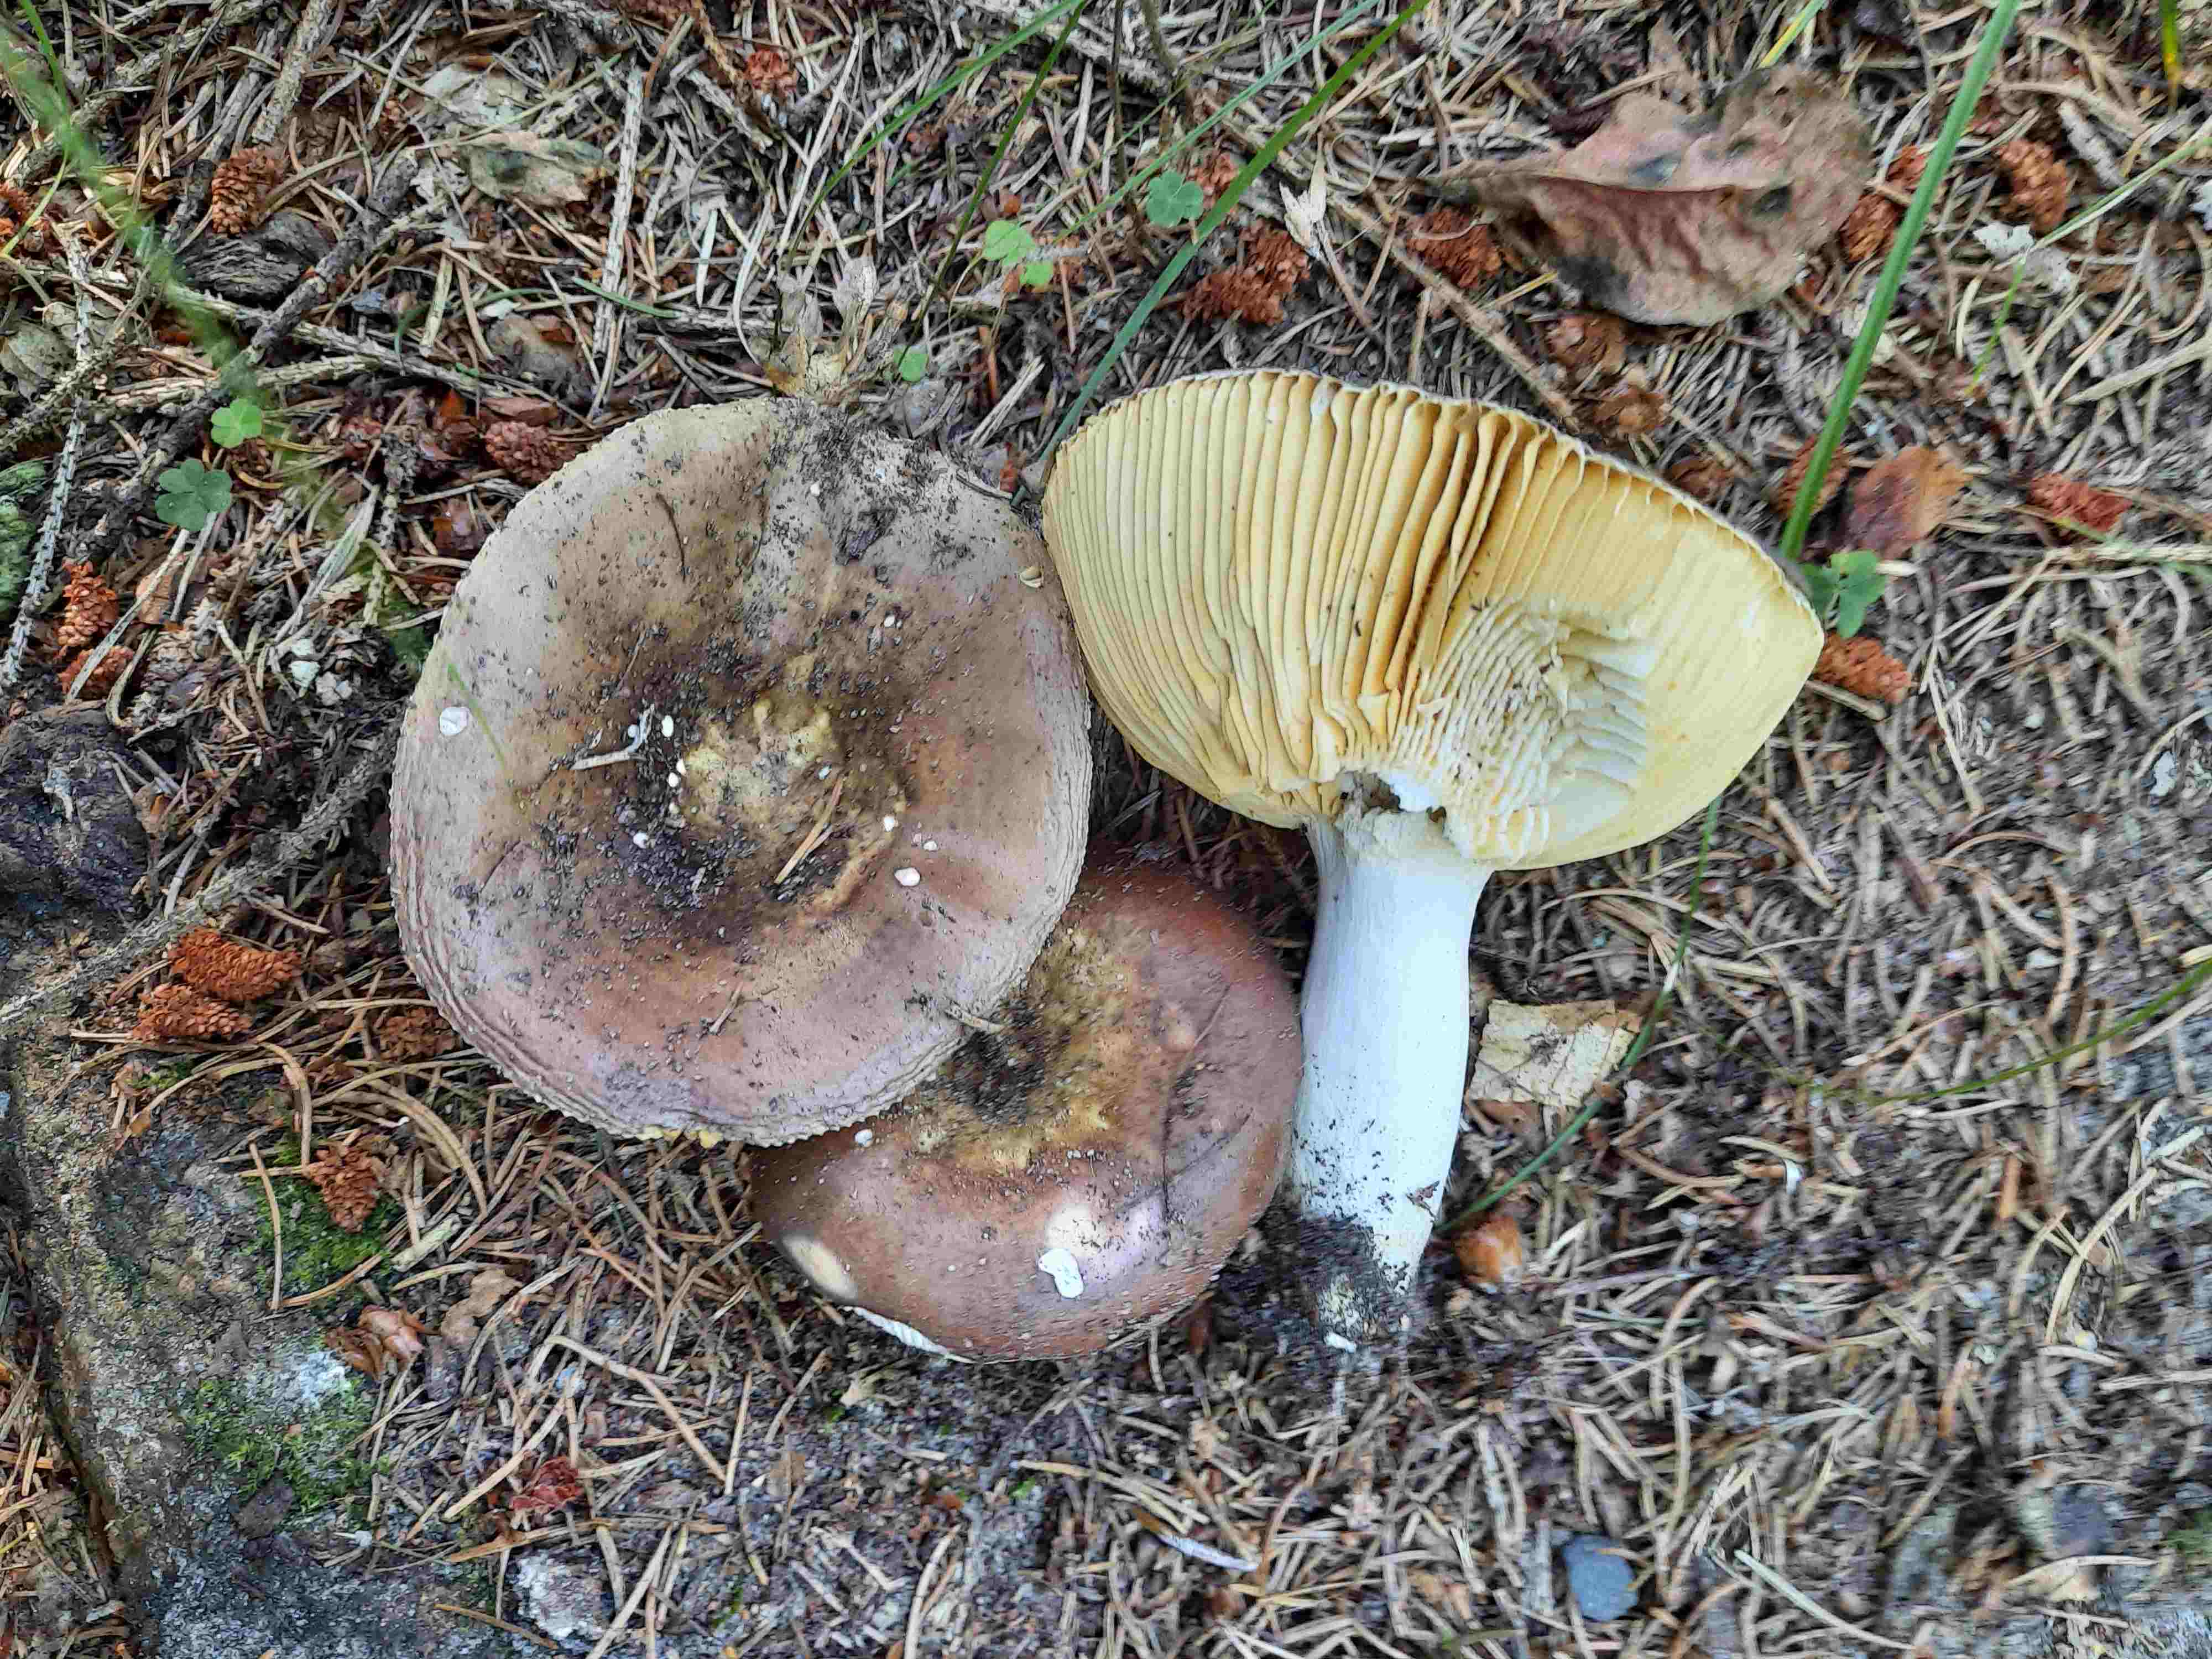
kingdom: Fungi
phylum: Basidiomycota
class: Agaricomycetes
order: Russulales
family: Russulaceae
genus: Russula
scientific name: Russula integra
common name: mandel-skørhat
